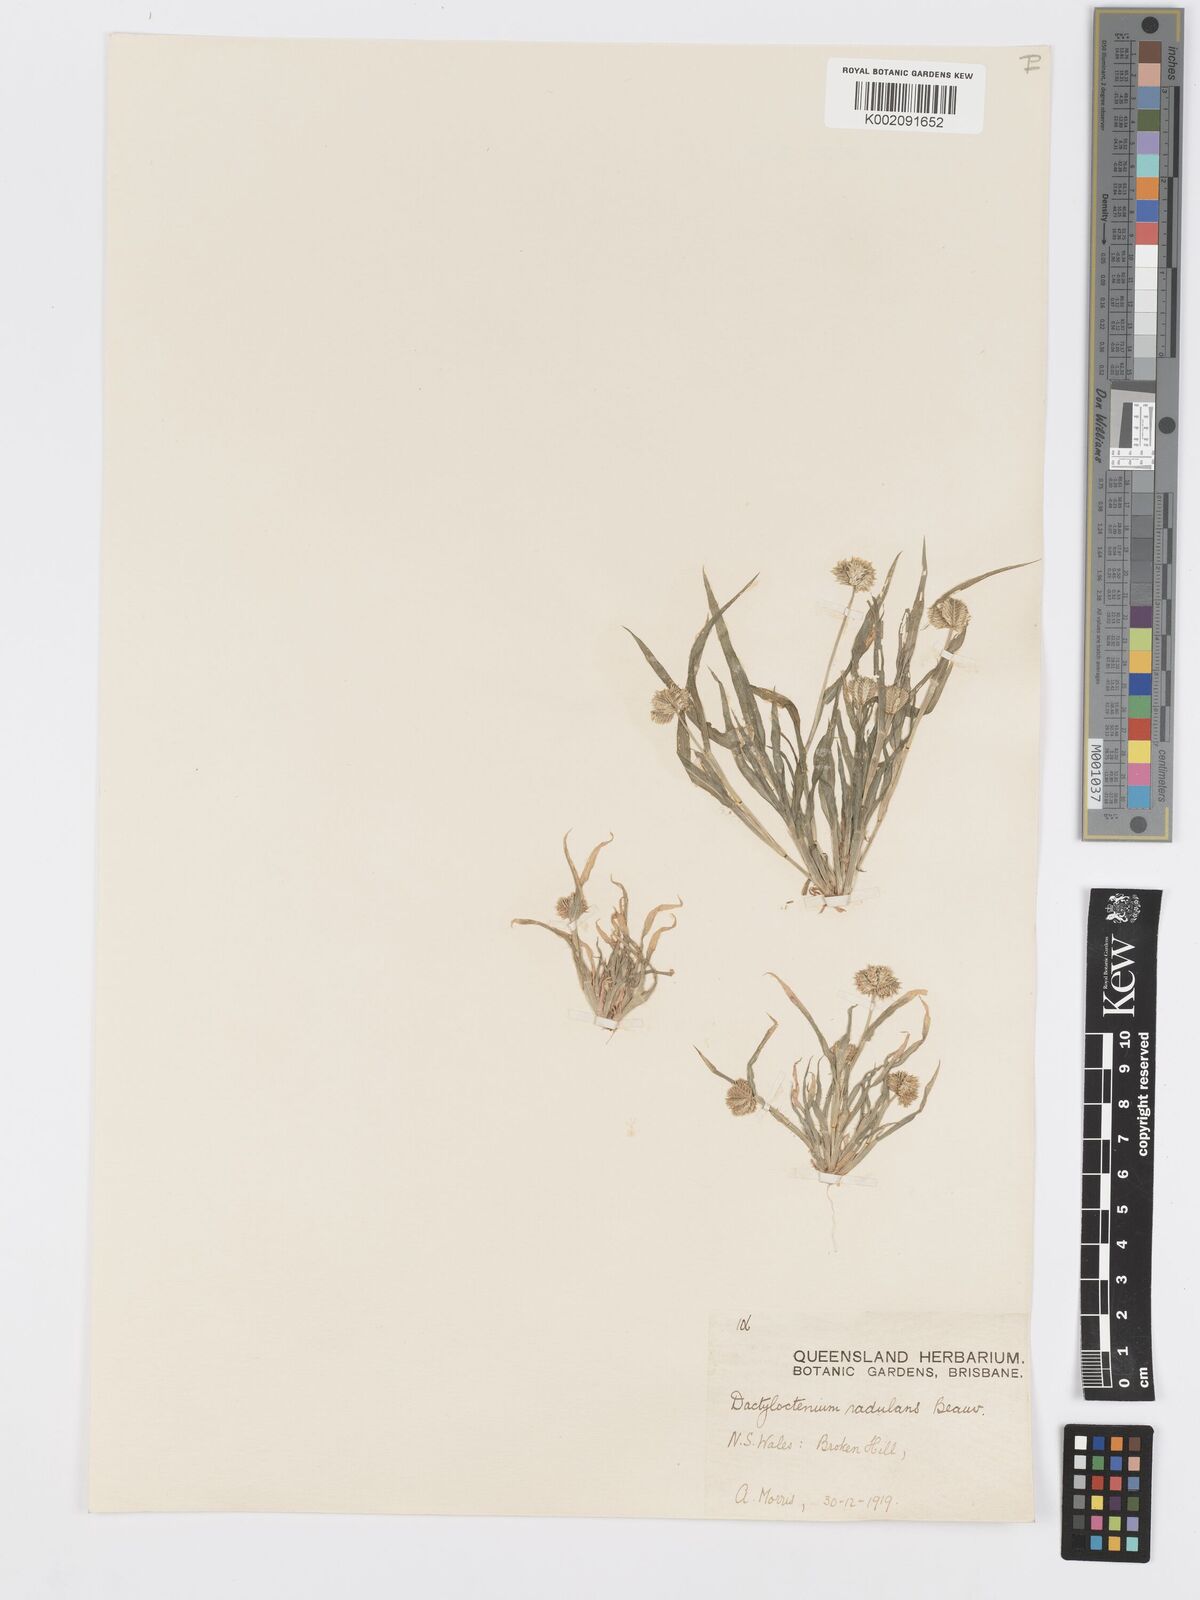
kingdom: Plantae
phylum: Tracheophyta
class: Liliopsida
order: Poales
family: Poaceae
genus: Dactyloctenium
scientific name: Dactyloctenium radulans
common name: Button-grass
